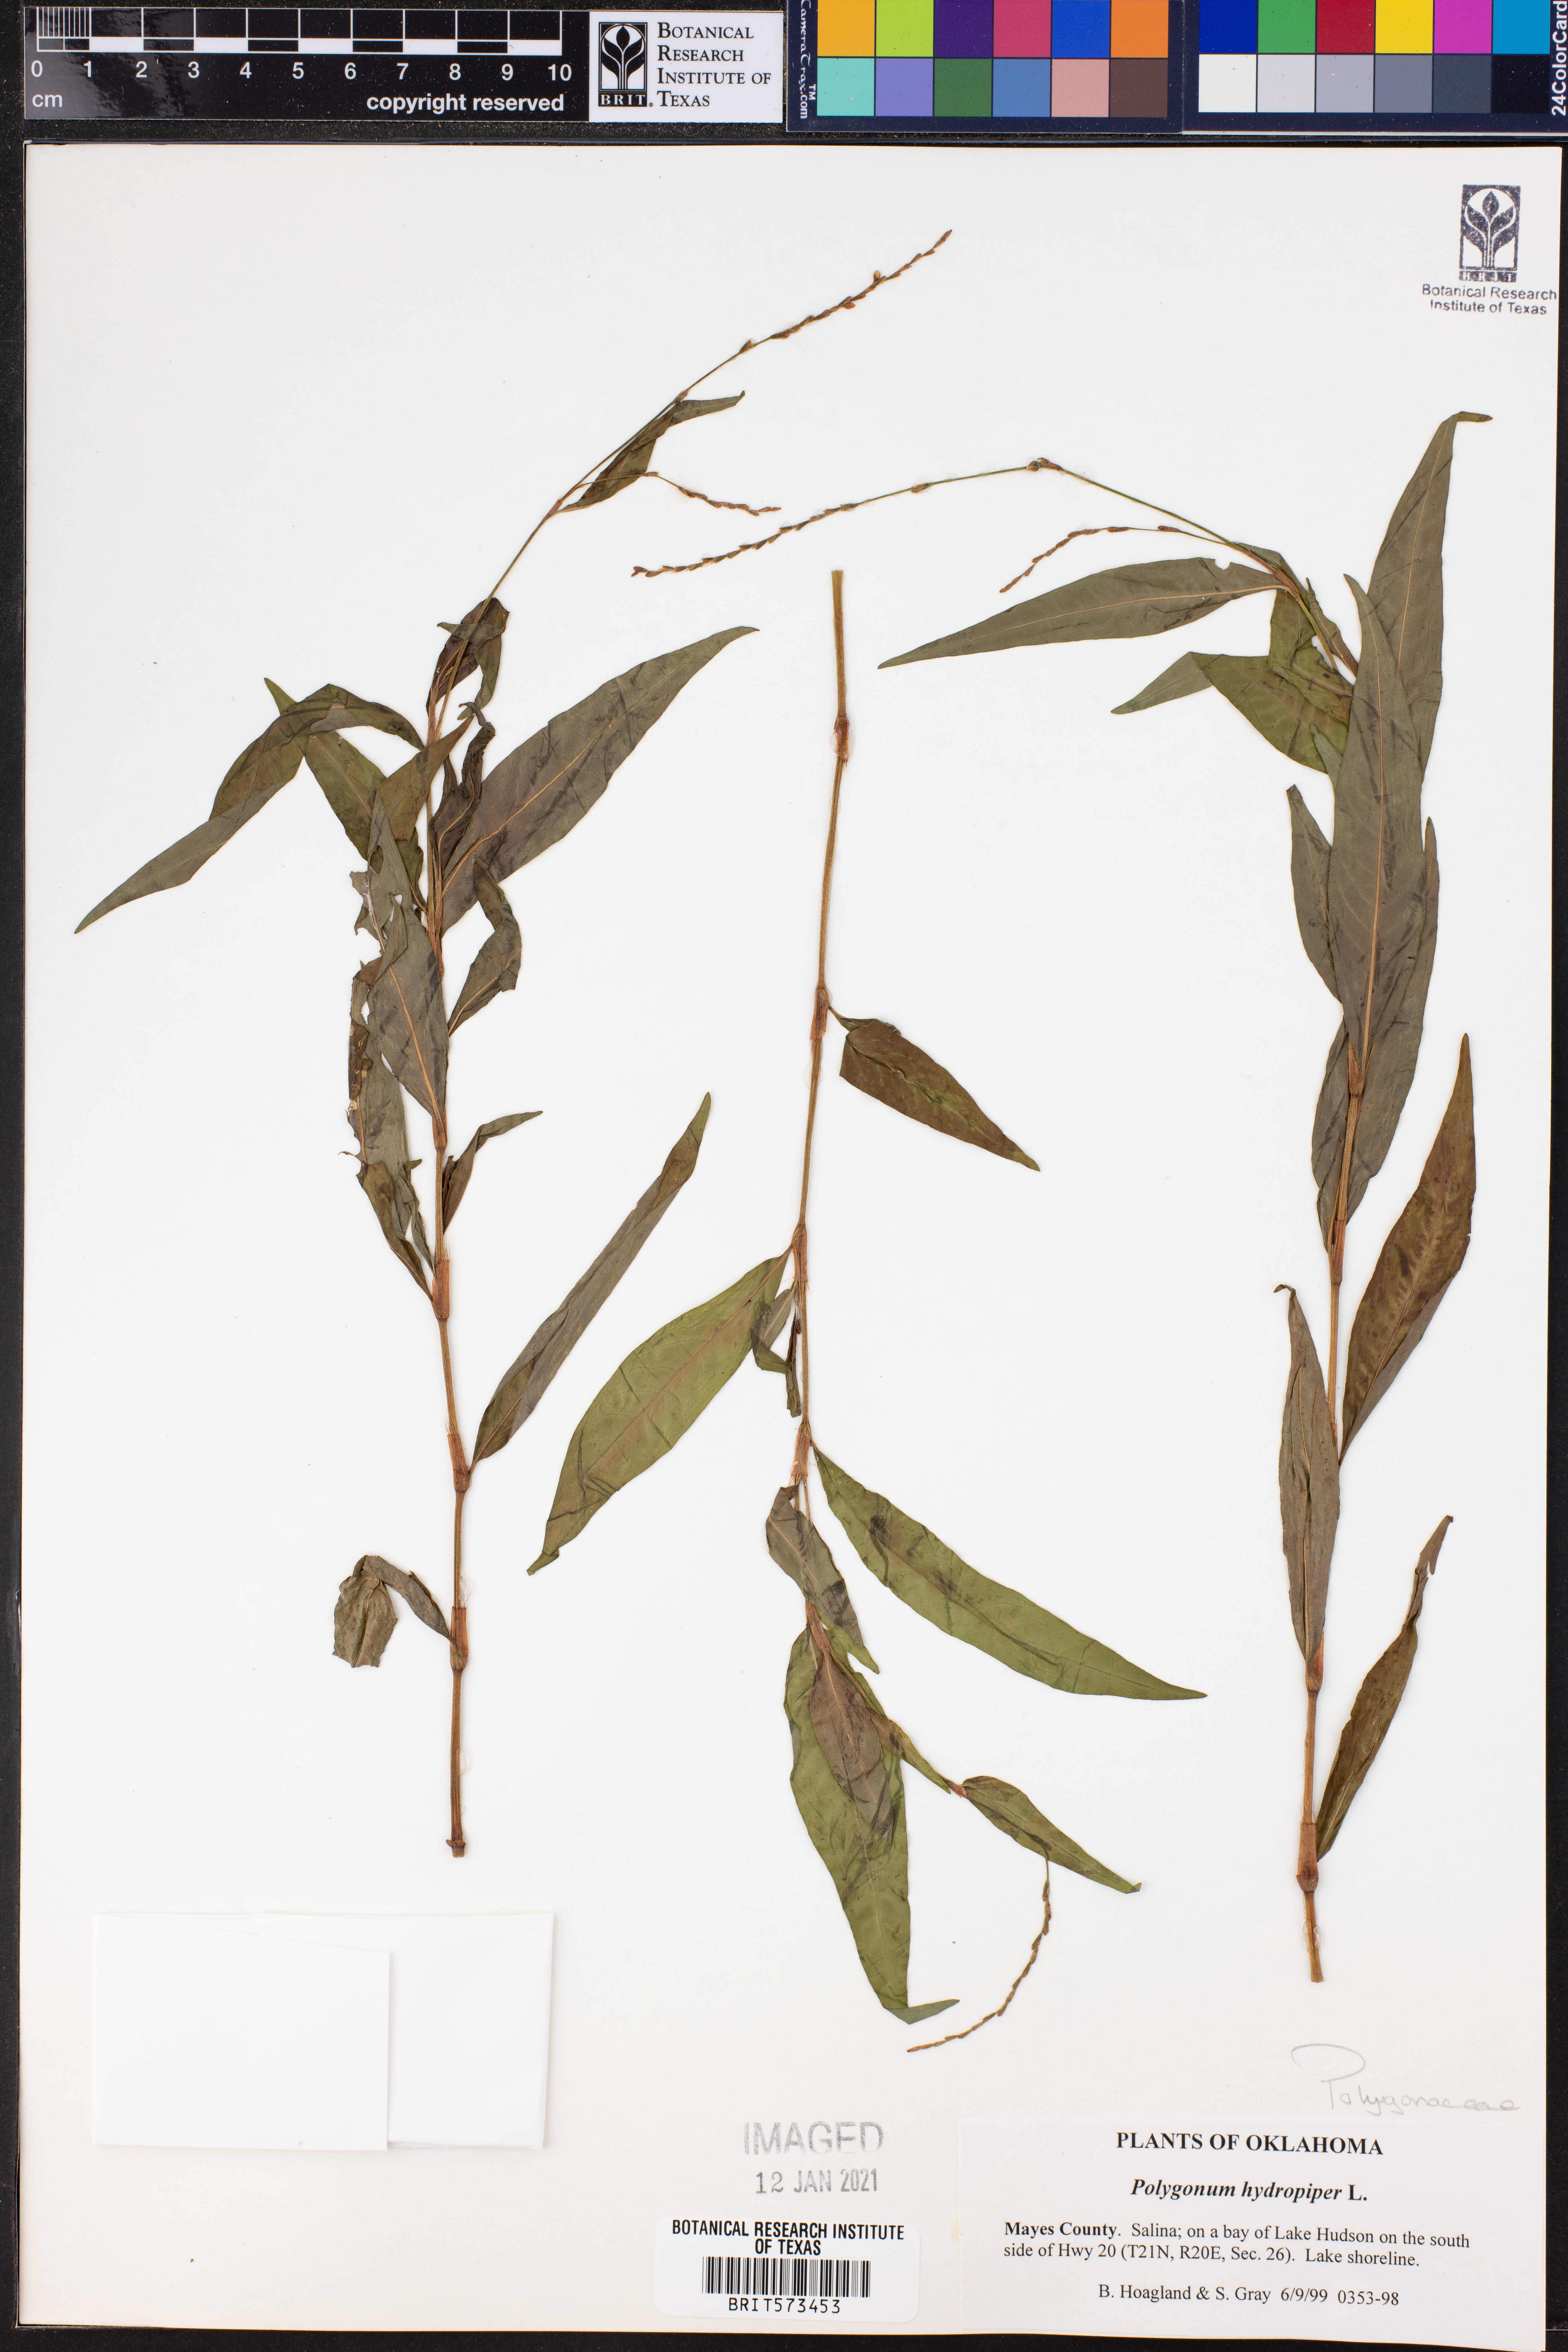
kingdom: Plantae
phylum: Tracheophyta
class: Magnoliopsida
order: Caryophyllales
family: Polygonaceae
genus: Persicaria
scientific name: Persicaria hydropiper
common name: Water-pepper
